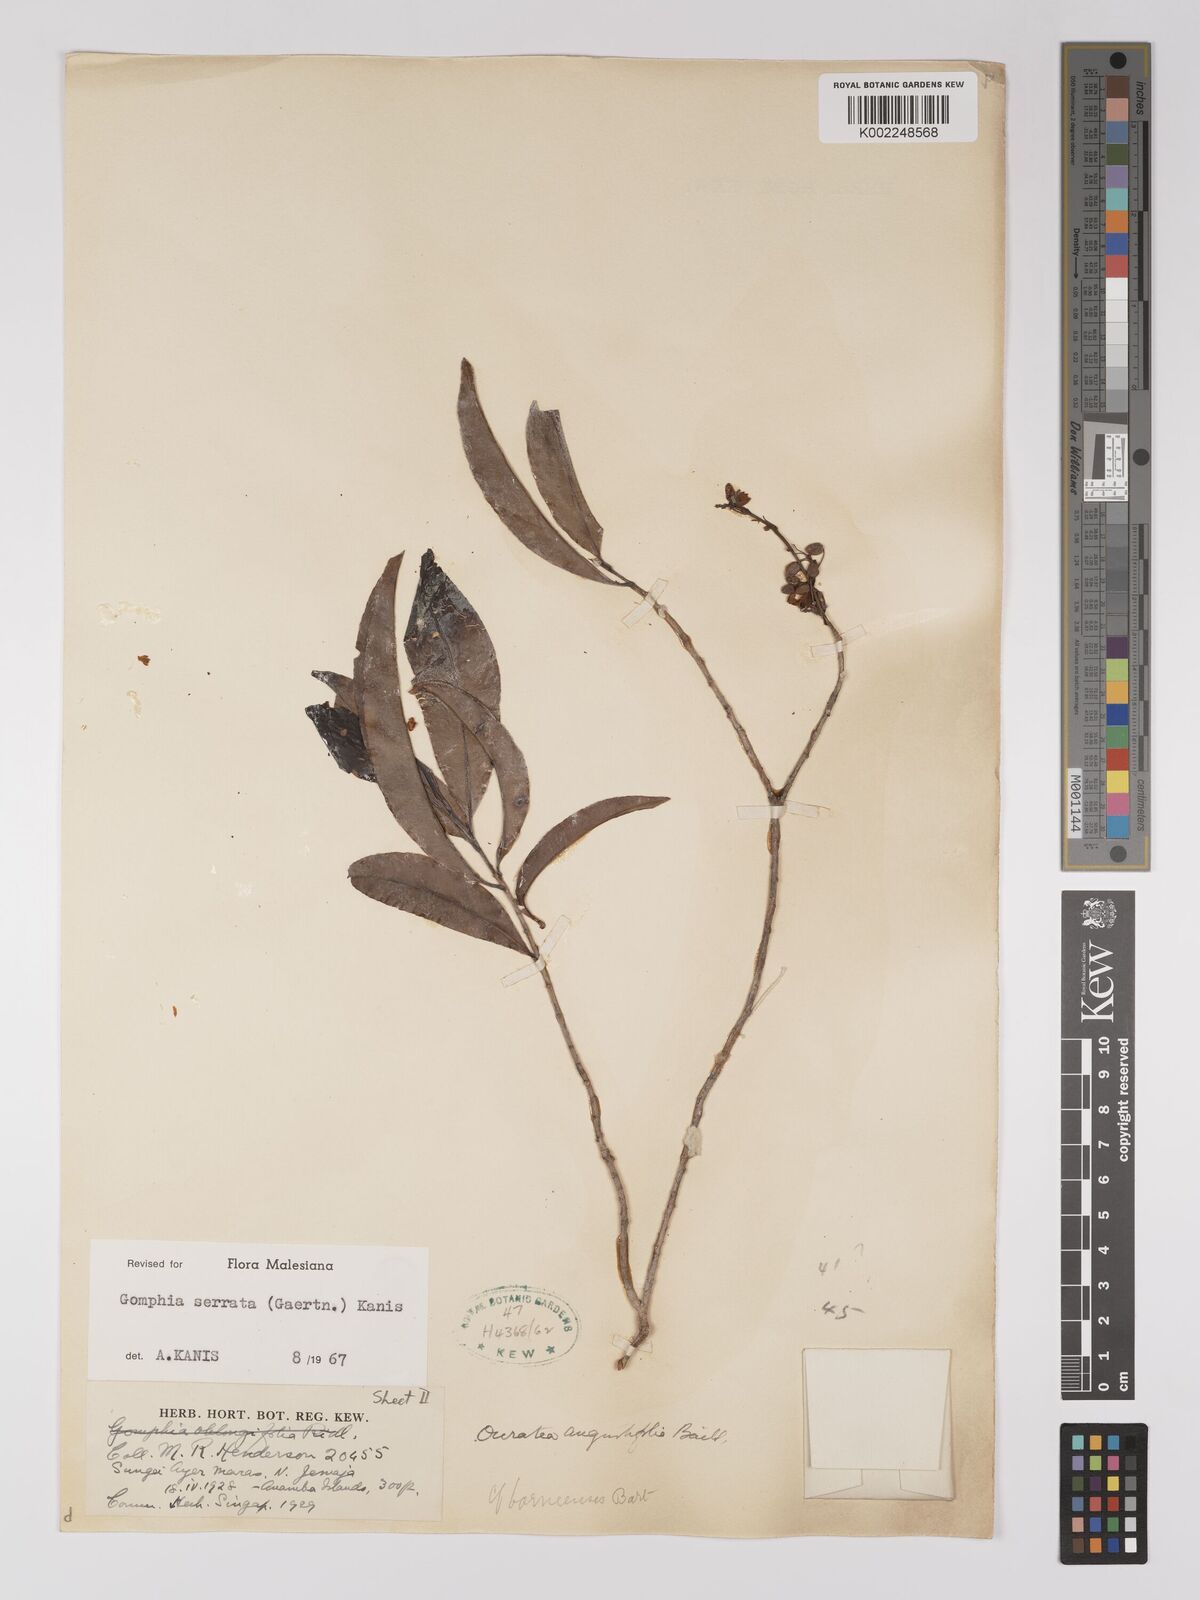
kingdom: Plantae
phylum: Tracheophyta
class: Magnoliopsida
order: Malpighiales
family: Ochnaceae
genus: Gomphia
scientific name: Gomphia serrata
